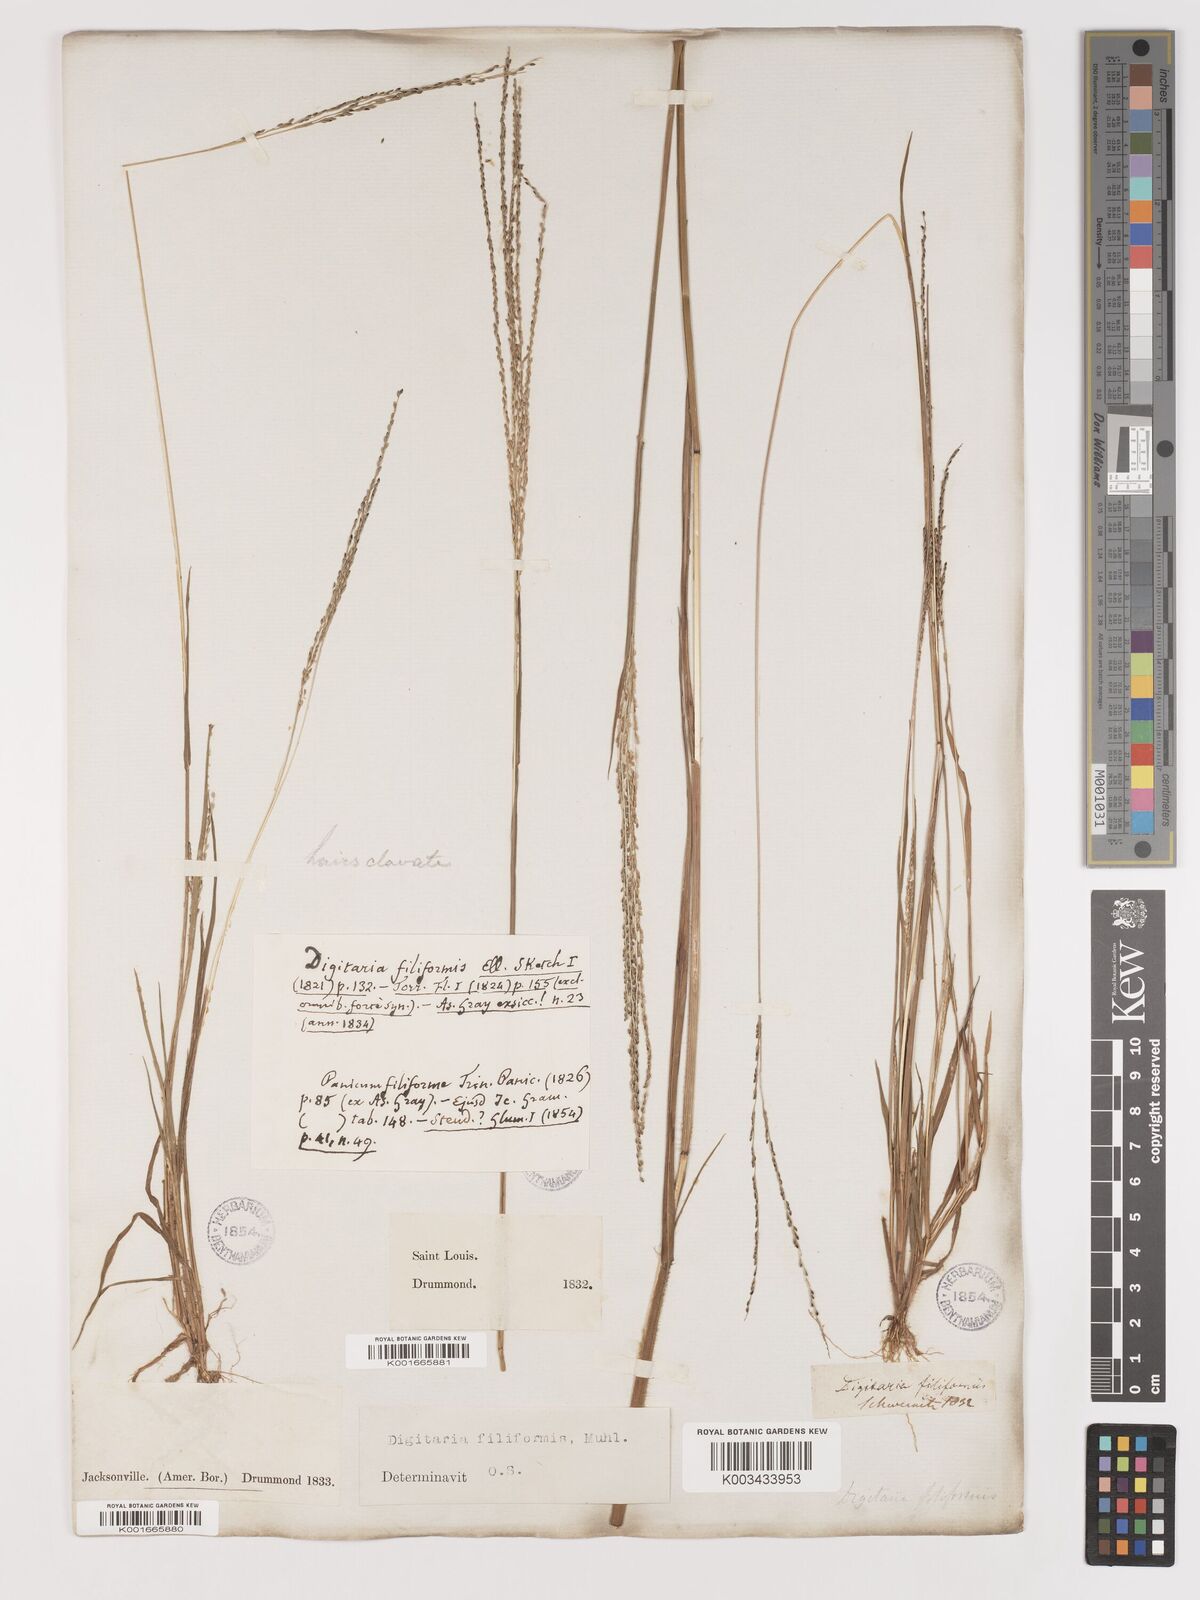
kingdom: Plantae
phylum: Tracheophyta
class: Liliopsida
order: Poales
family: Poaceae
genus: Digitaria
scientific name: Digitaria filiformis
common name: Slender crabgrass
